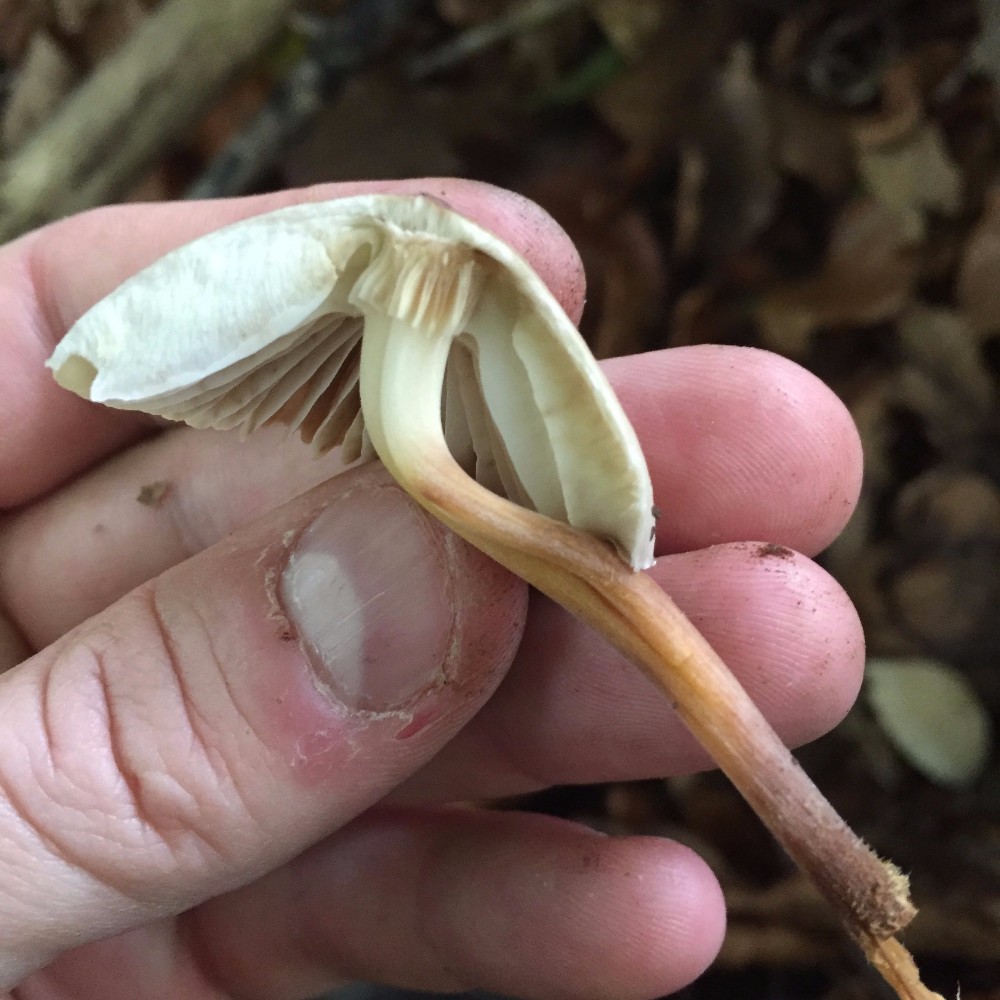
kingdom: Fungi
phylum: Basidiomycota
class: Agaricomycetes
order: Agaricales
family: Mycenaceae
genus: Mycena
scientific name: Mycena galericulata
